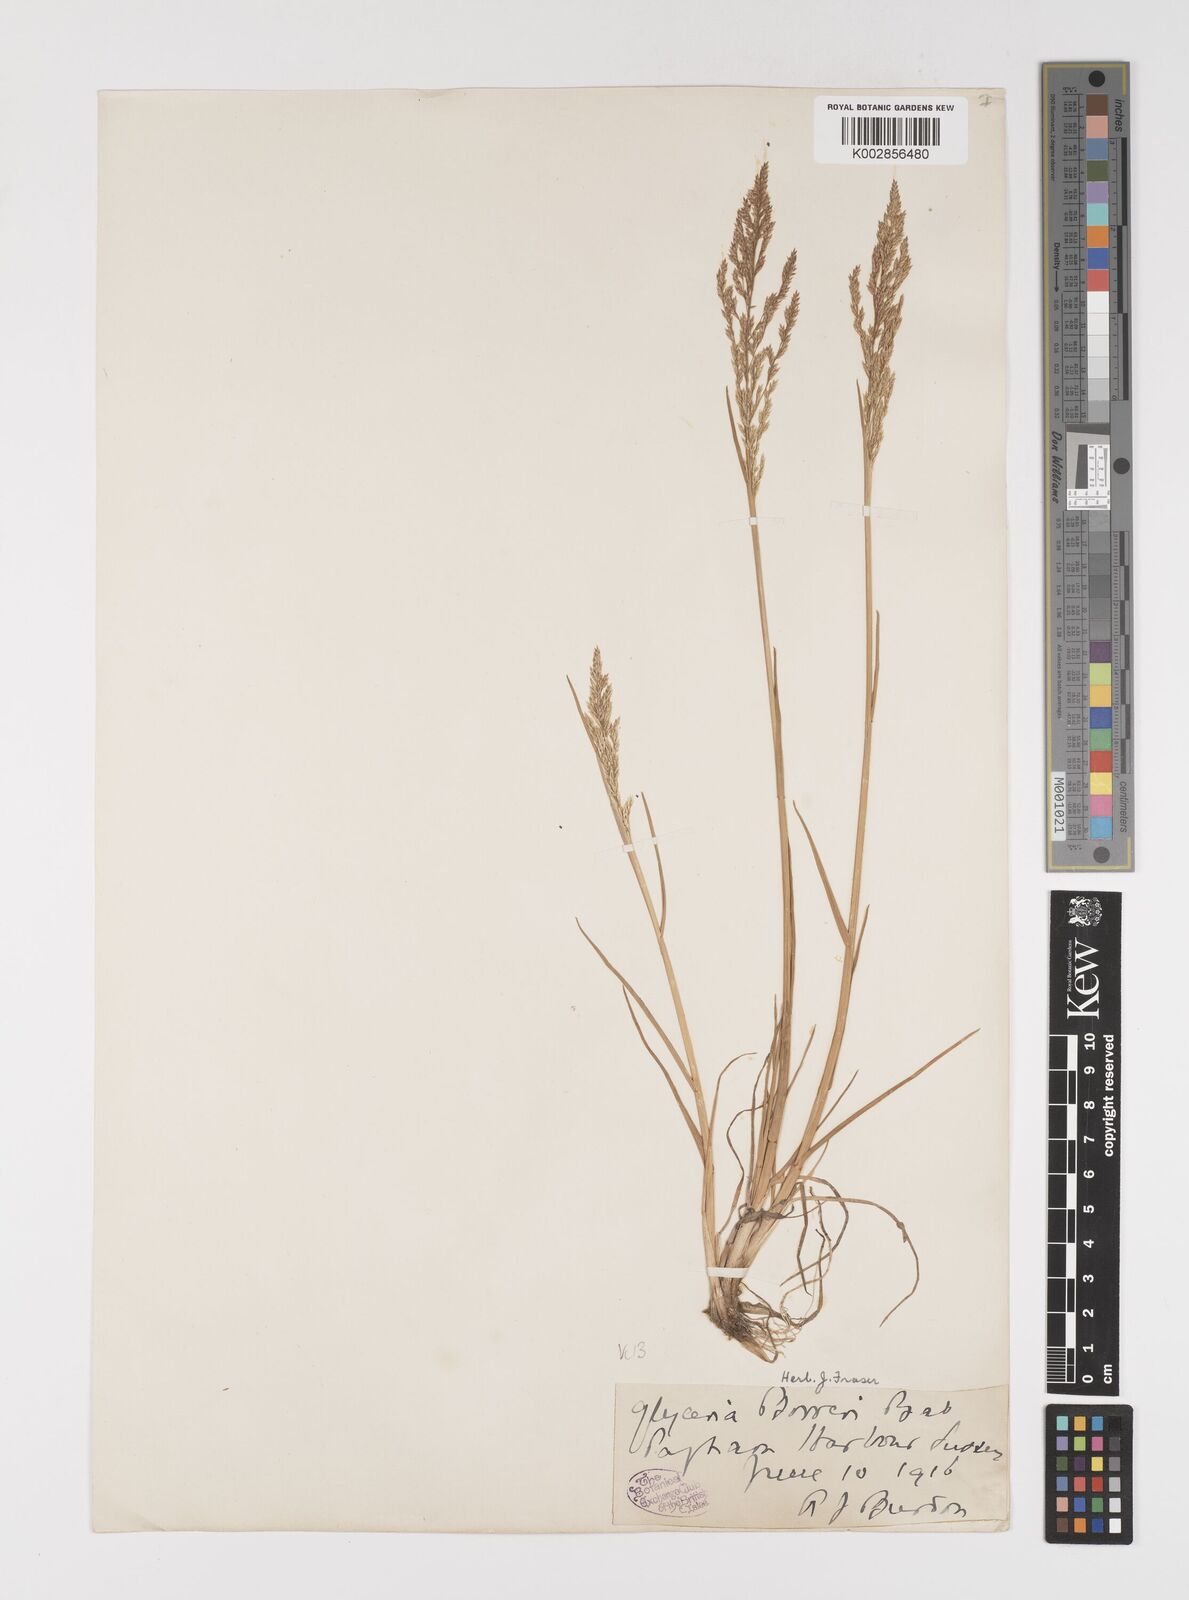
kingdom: Plantae
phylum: Tracheophyta
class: Liliopsida
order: Poales
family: Poaceae
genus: Puccinellia
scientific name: Puccinellia distans
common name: Weeping alkaligrass
